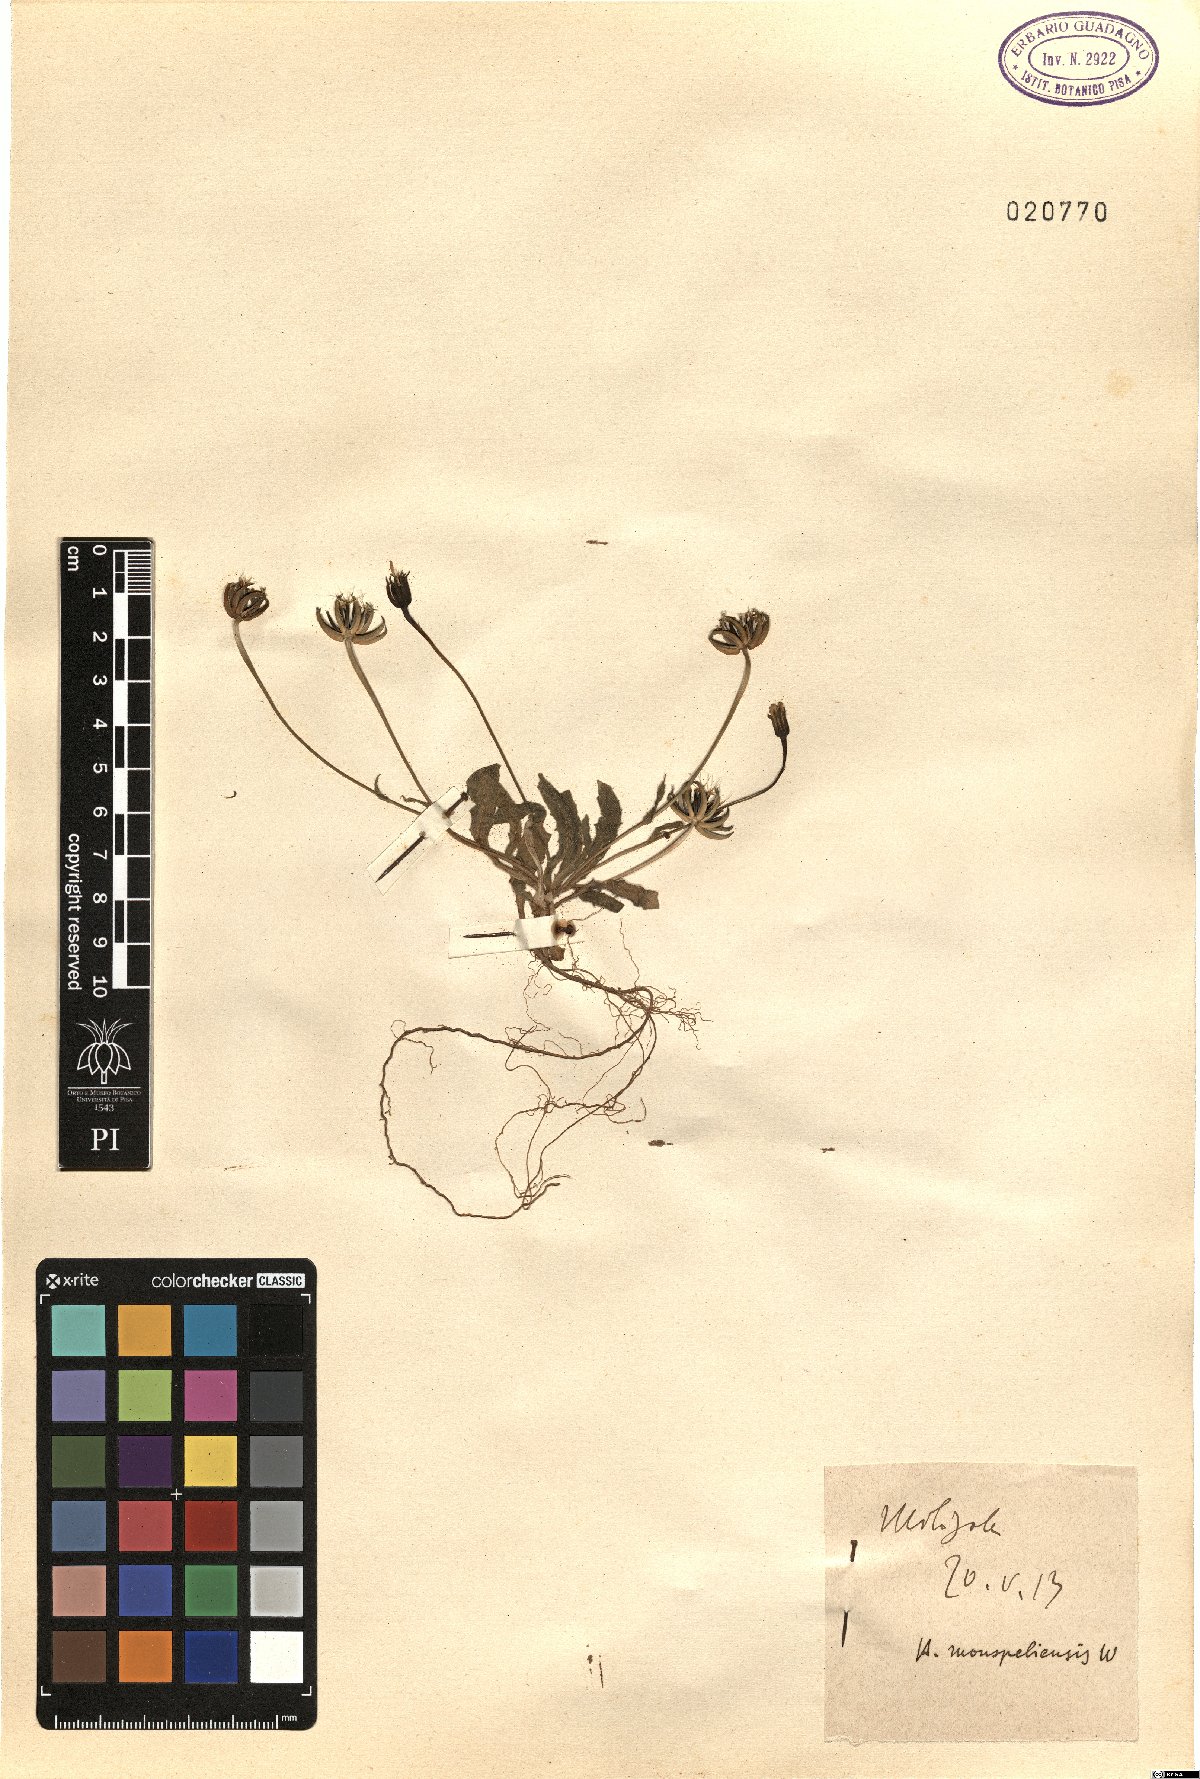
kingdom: Plantae
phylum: Tracheophyta
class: Magnoliopsida
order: Asterales
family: Asteraceae
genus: Hedypnois
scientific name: Hedypnois rhagadioloides
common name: Cretan weed
